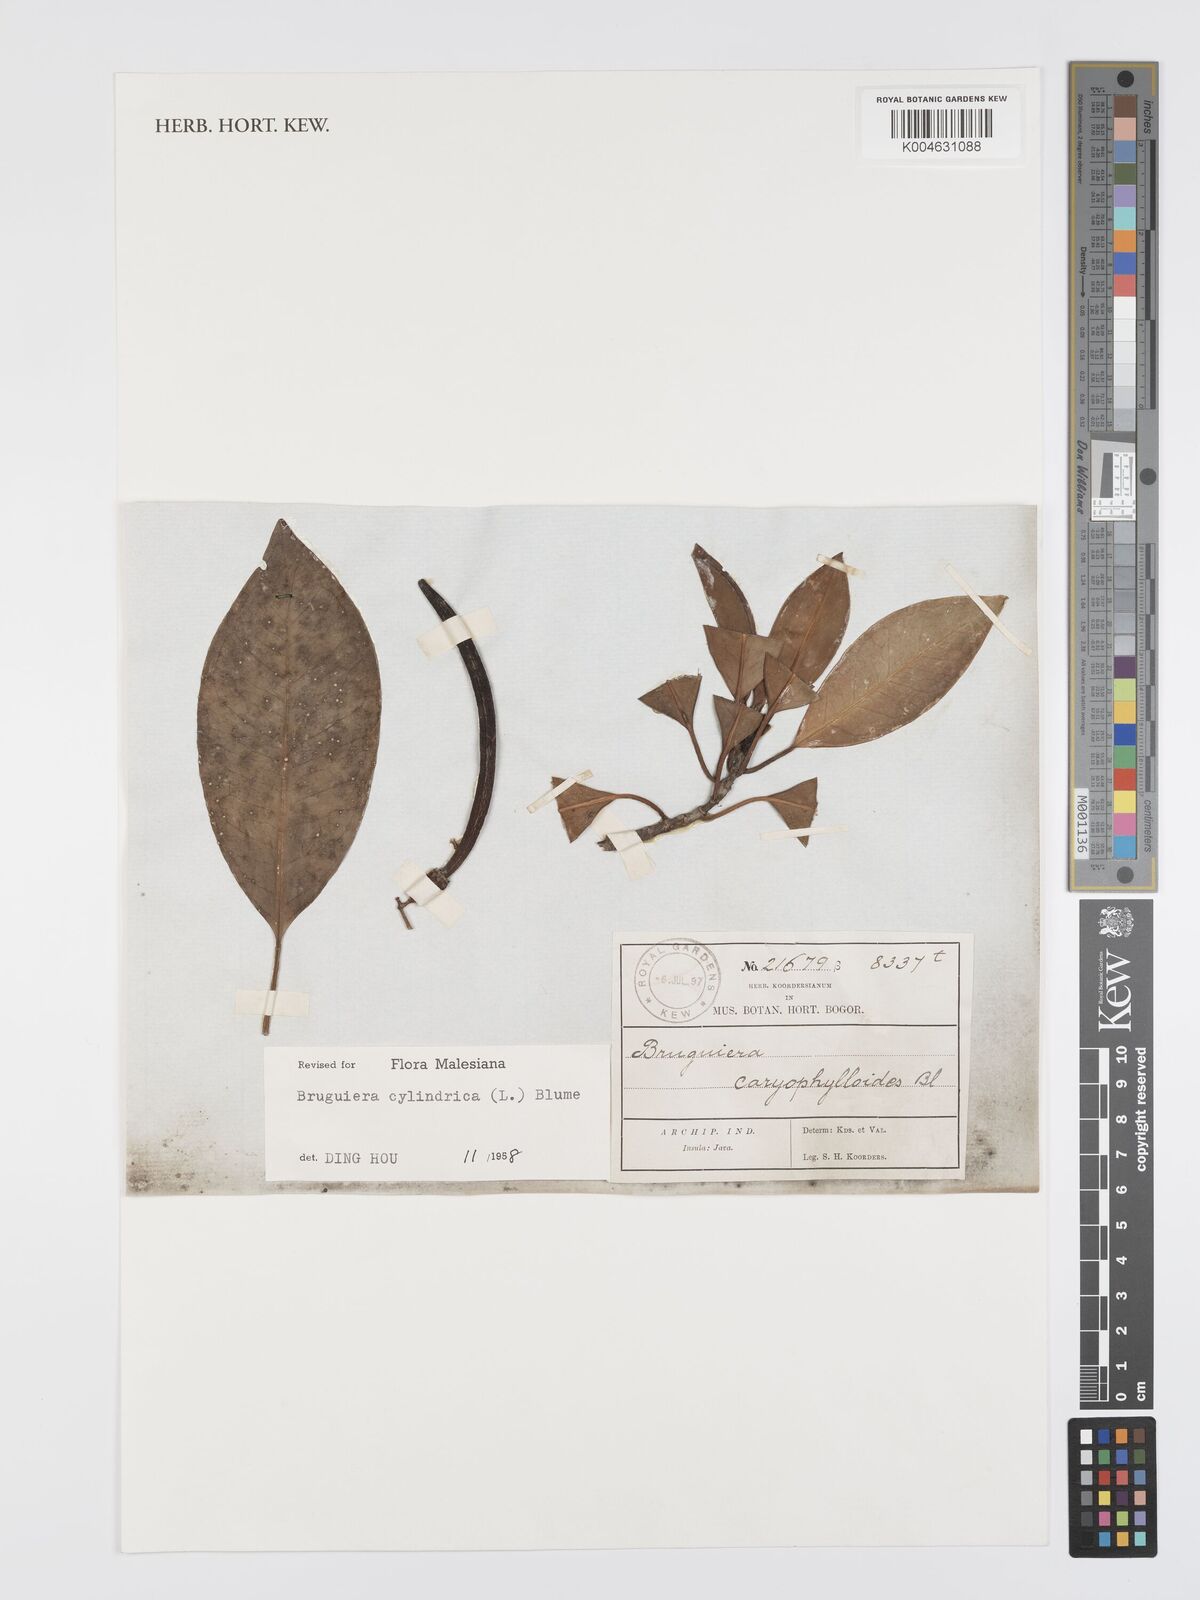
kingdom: Plantae
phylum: Tracheophyta
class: Magnoliopsida
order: Malpighiales
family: Rhizophoraceae
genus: Bruguiera
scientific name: Bruguiera cylindrica
